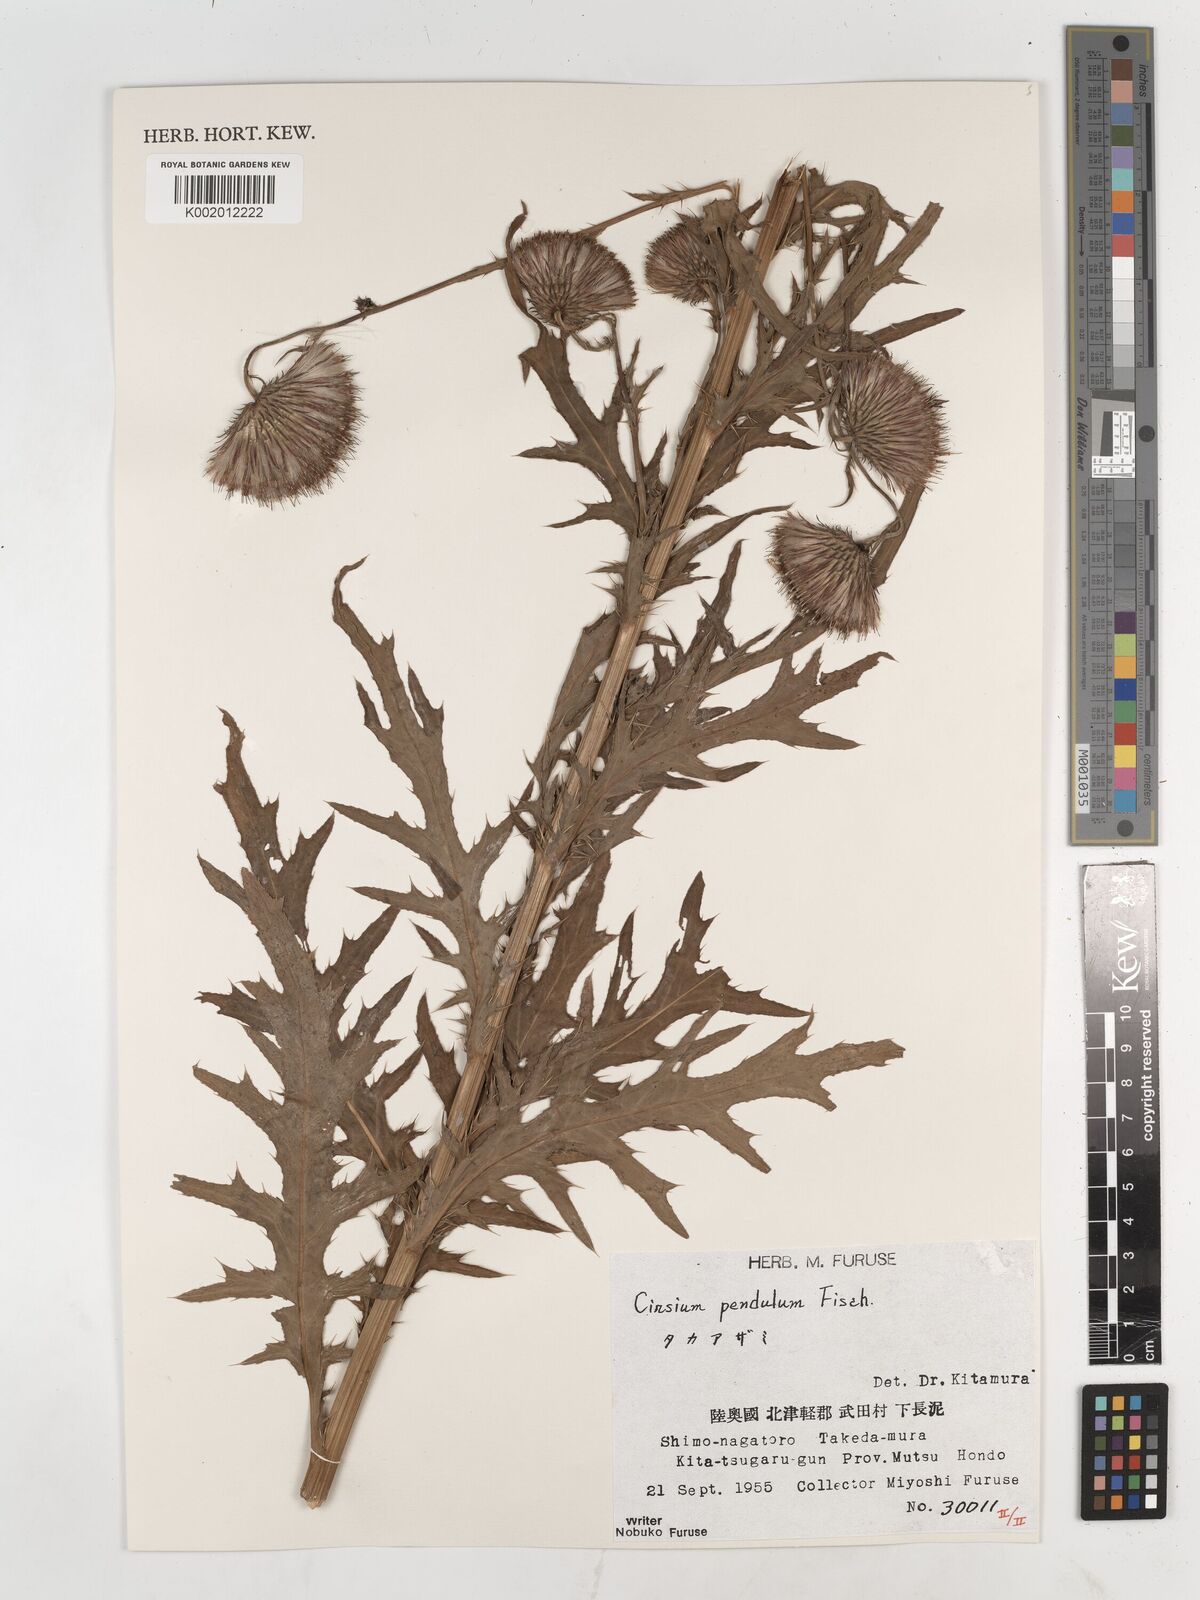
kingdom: Plantae
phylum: Tracheophyta
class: Magnoliopsida
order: Asterales
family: Asteraceae
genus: Cirsium
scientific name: Cirsium pendulum
